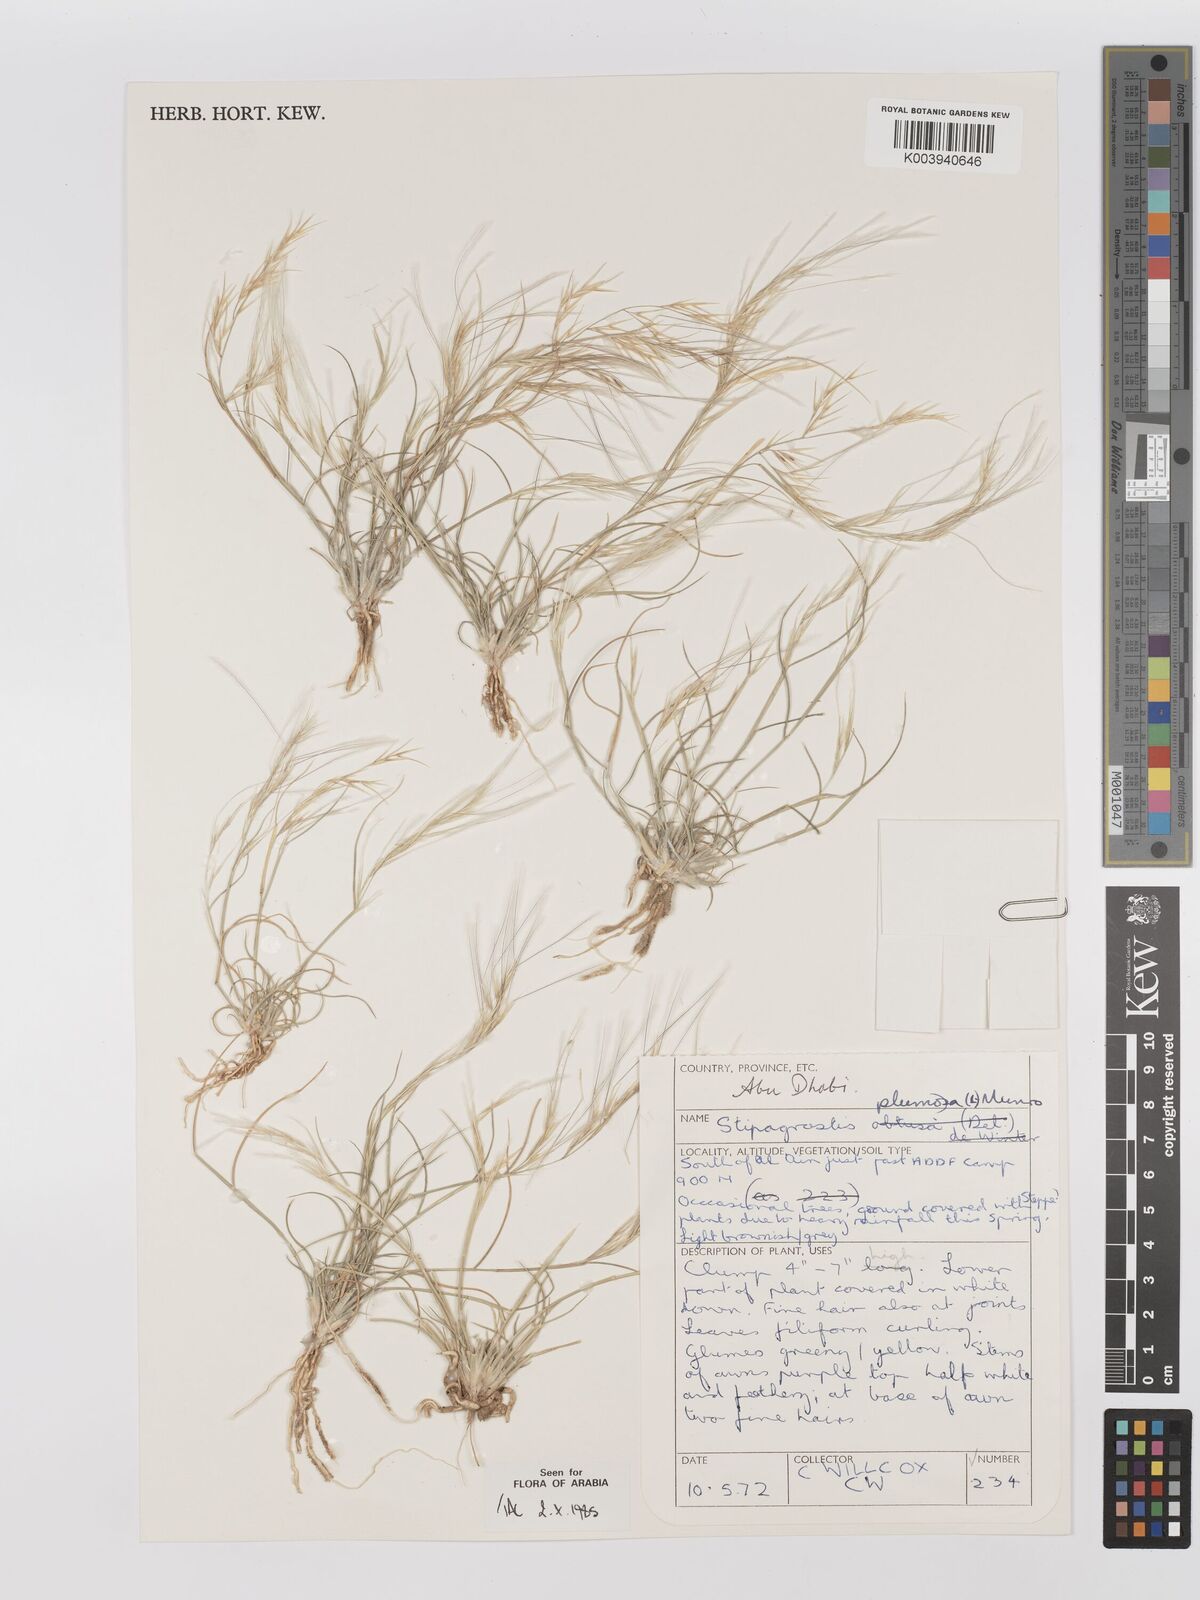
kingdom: Plantae
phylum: Tracheophyta
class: Liliopsida
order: Poales
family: Poaceae
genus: Stipagrostis
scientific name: Stipagrostis plumosa
